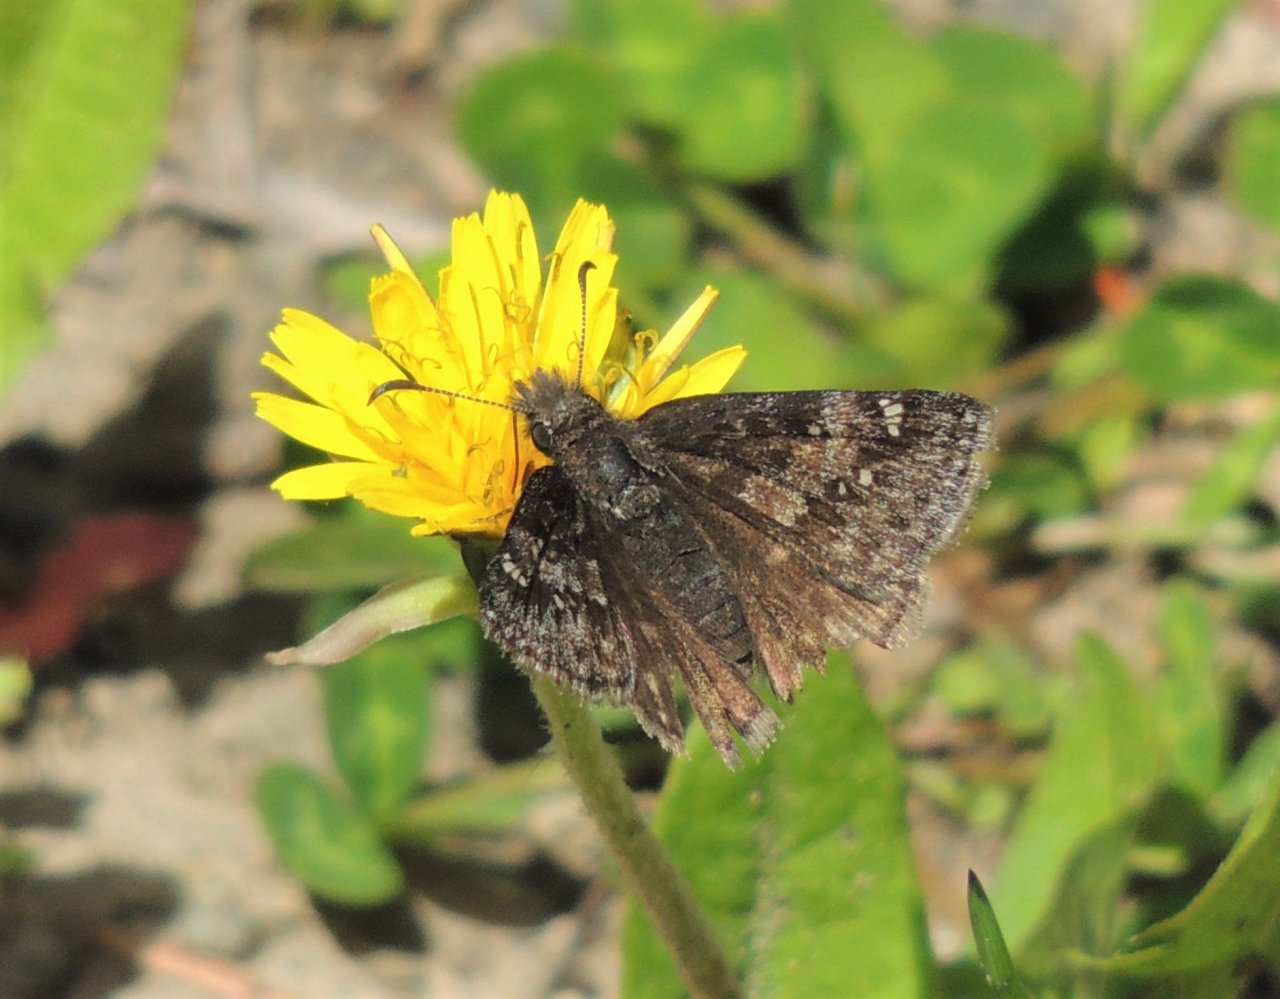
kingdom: Animalia
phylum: Arthropoda
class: Insecta
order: Lepidoptera
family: Hesperiidae
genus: Gesta
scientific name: Gesta
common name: Persius Duskywing
